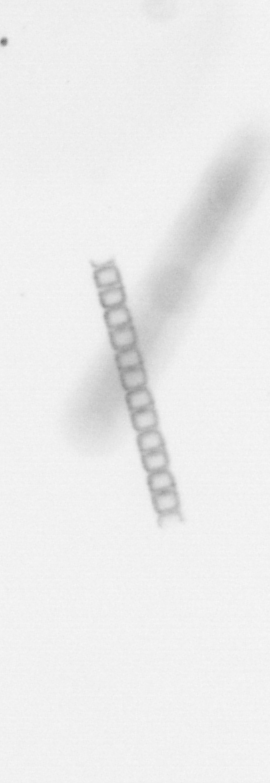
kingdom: Chromista
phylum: Ochrophyta
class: Bacillariophyceae
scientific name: Bacillariophyceae
